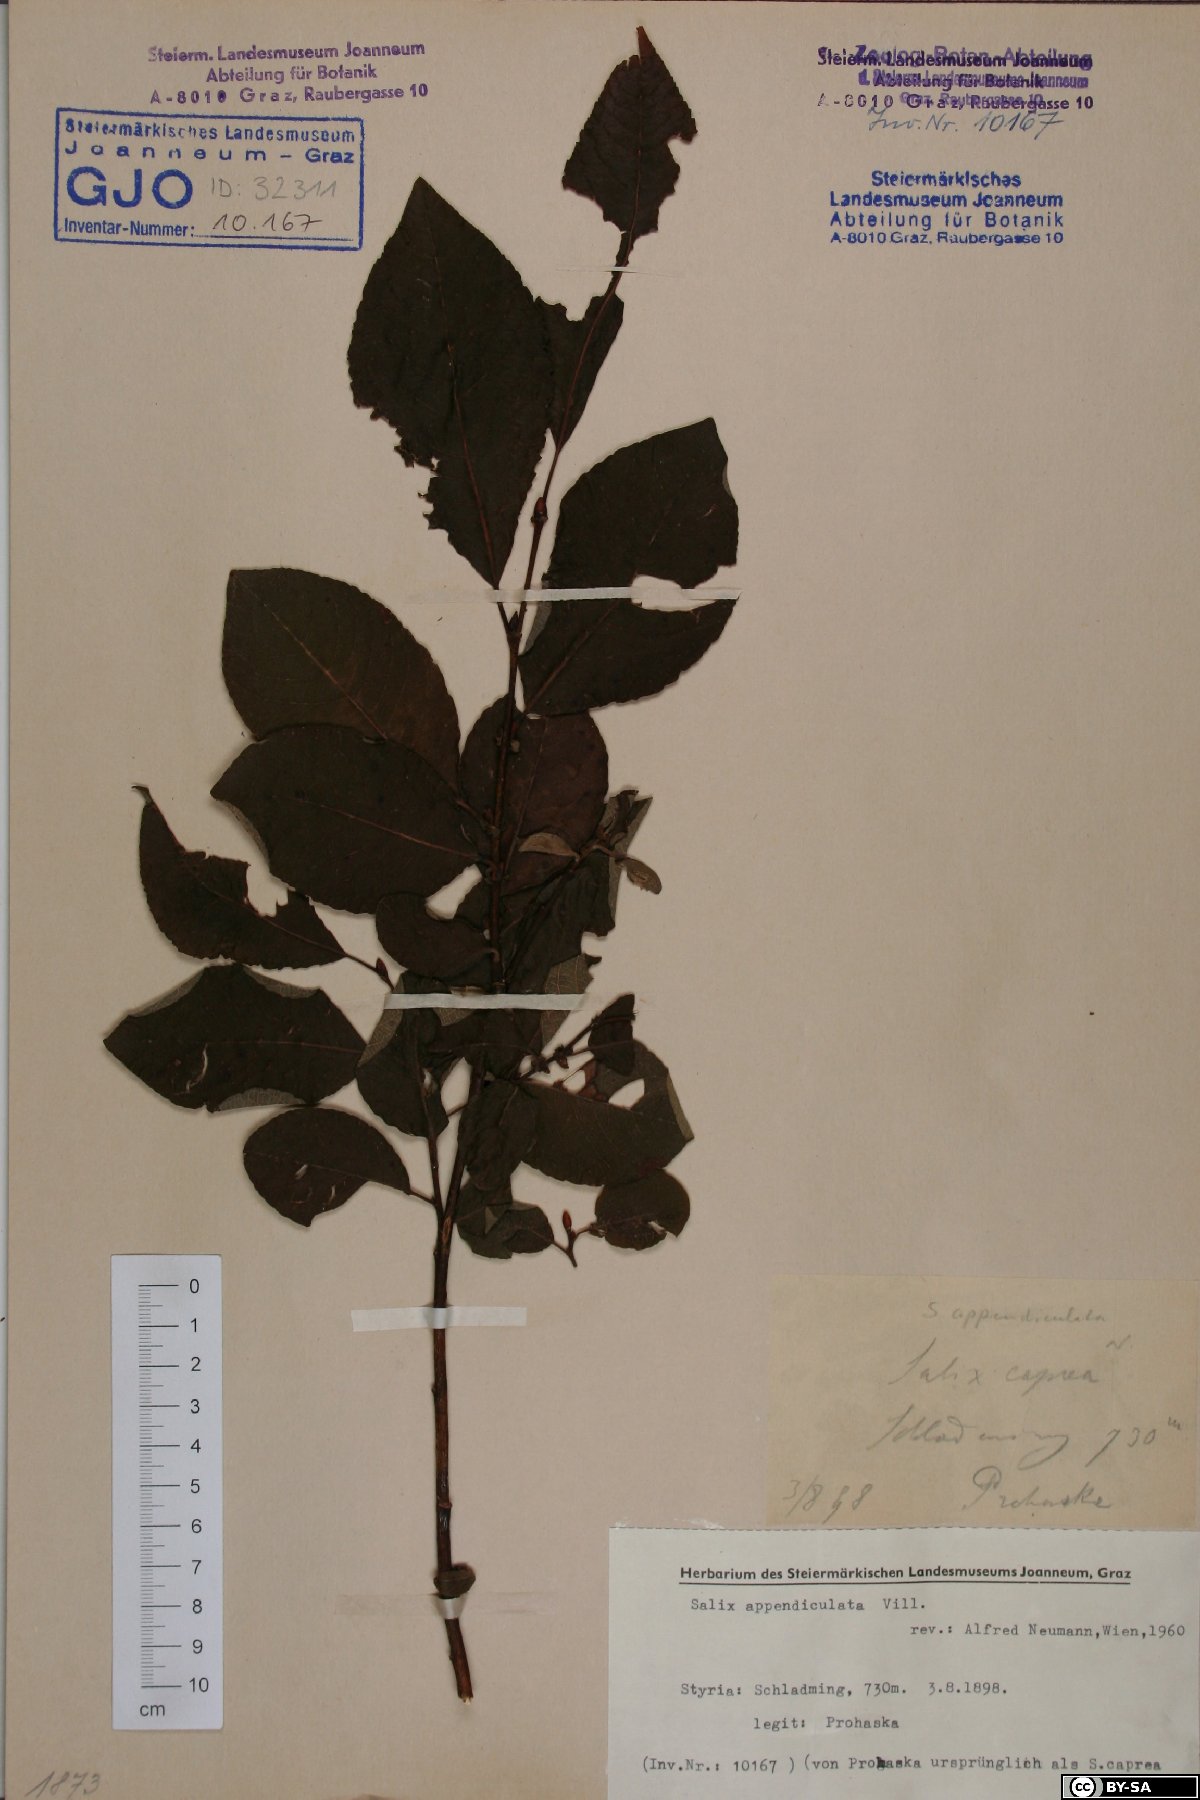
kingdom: Plantae
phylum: Tracheophyta
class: Magnoliopsida
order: Malpighiales
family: Salicaceae
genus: Salix
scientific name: Salix appendiculata
